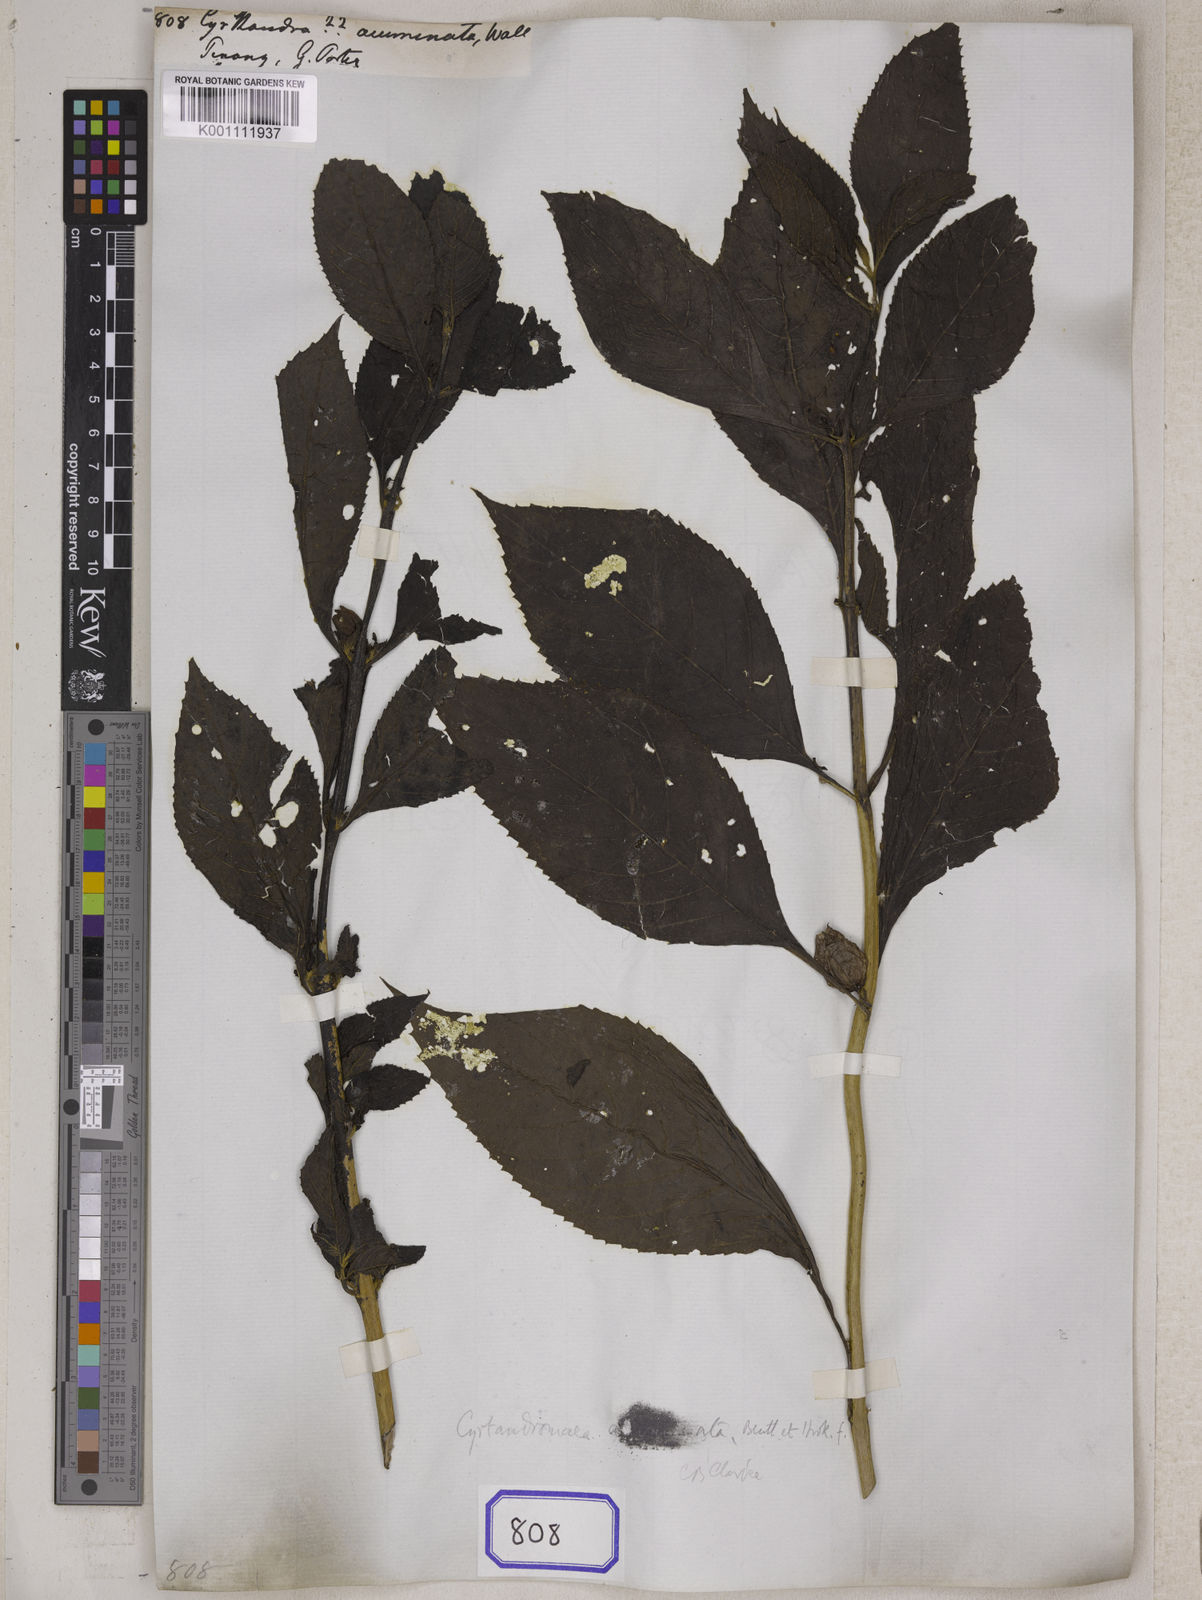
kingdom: Plantae
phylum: Tracheophyta
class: Magnoliopsida
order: Lamiales
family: Gesneriaceae
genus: Cyrtandra
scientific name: Cyrtandra
